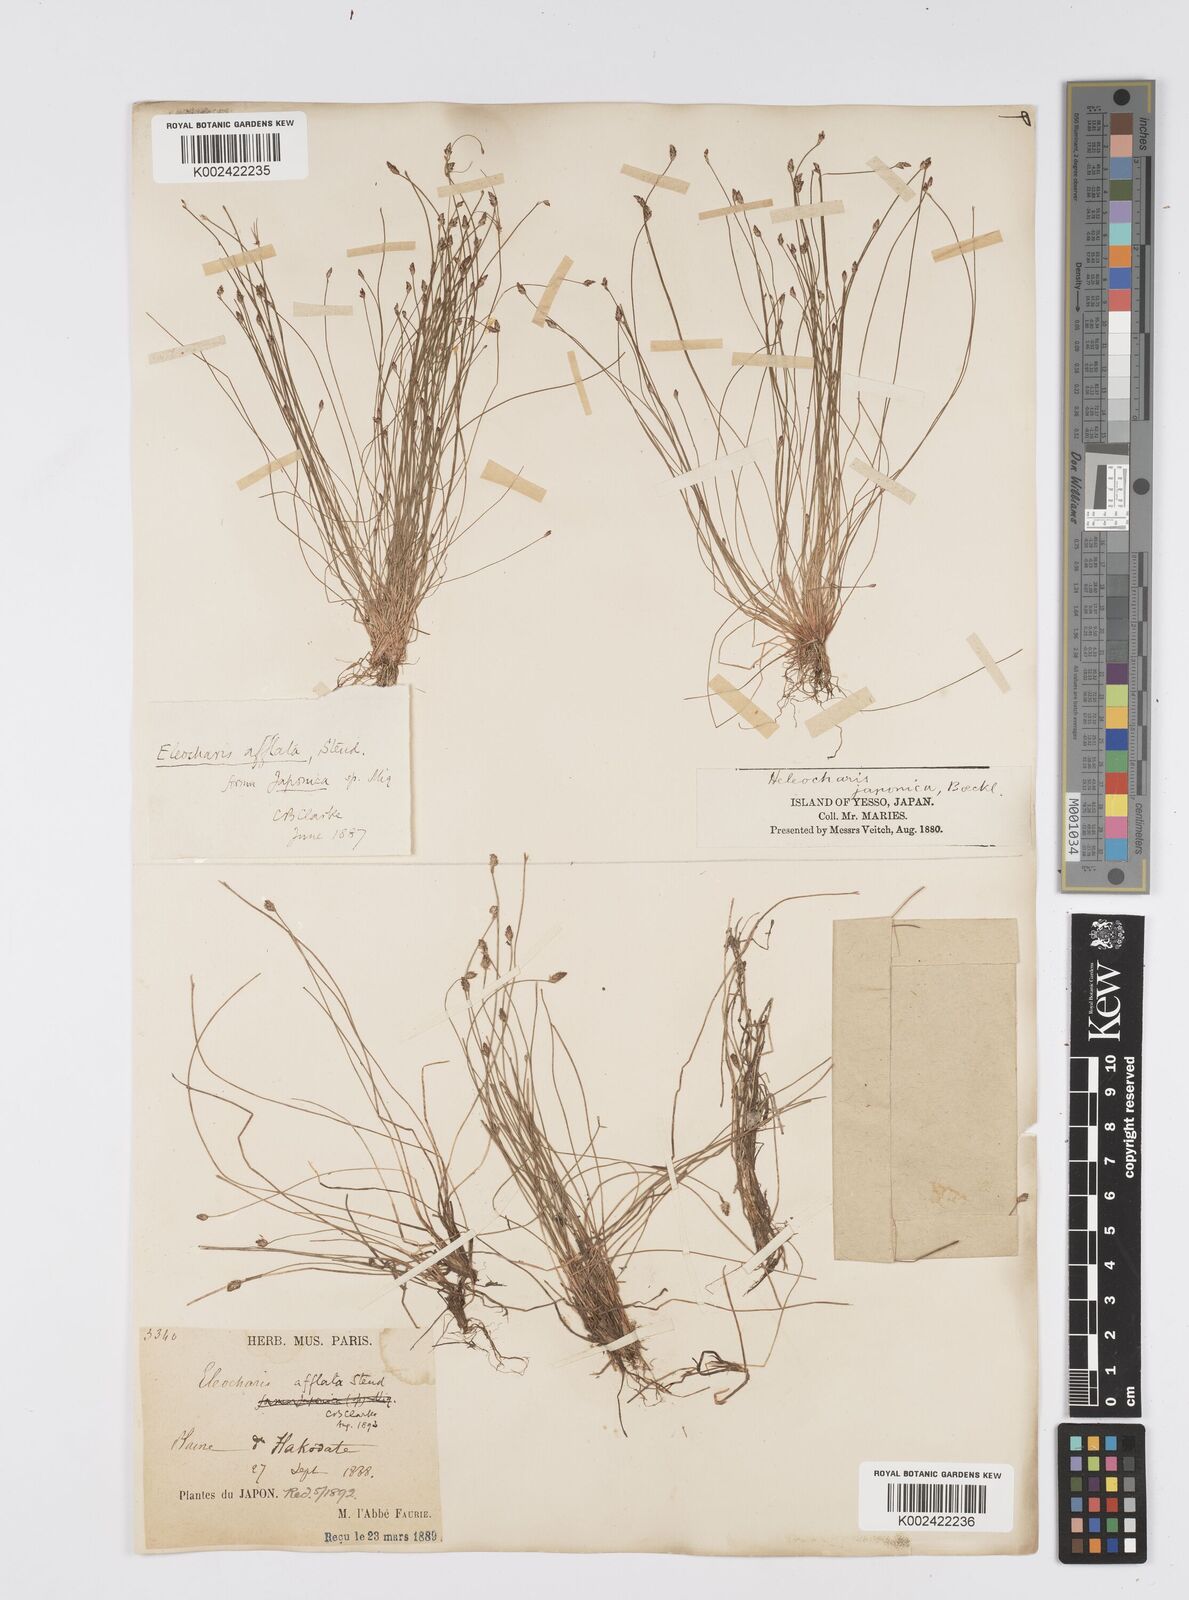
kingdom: Plantae
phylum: Tracheophyta
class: Liliopsida
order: Poales
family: Cyperaceae
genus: Eleocharis
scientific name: Eleocharis pellucida
